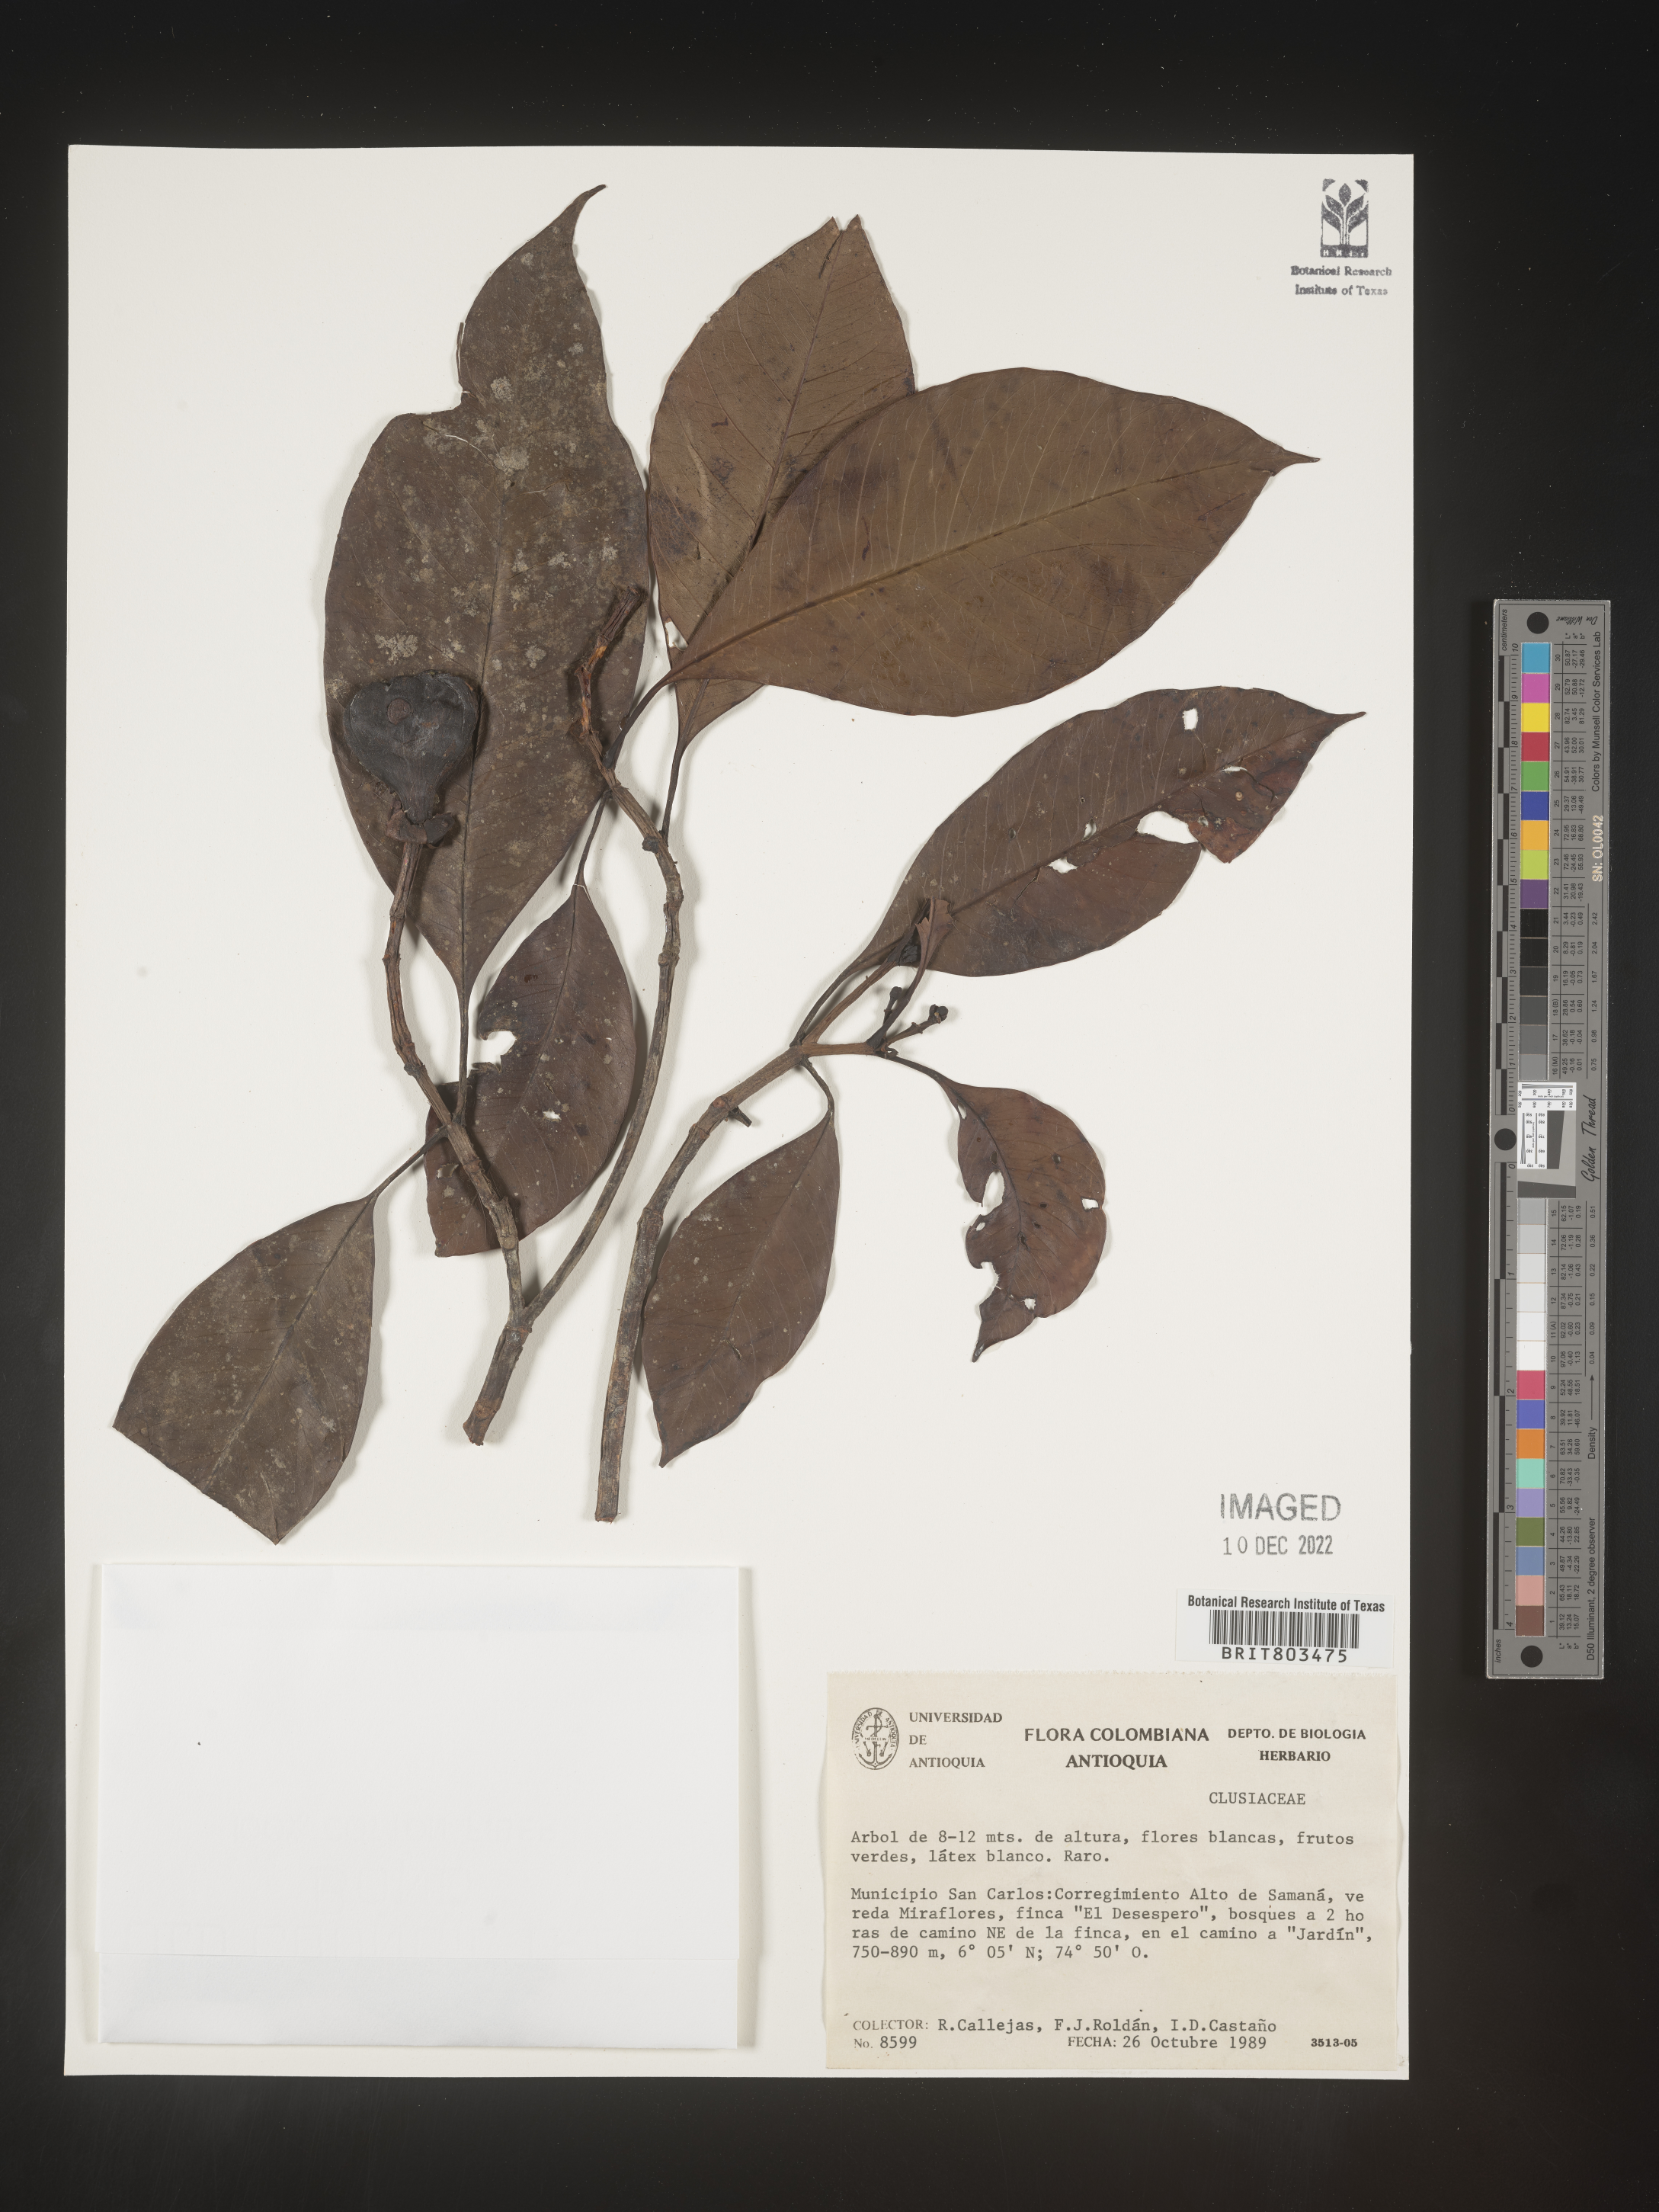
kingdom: Plantae
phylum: Tracheophyta
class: Magnoliopsida
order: Malpighiales
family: Clusiaceae
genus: Tovomita
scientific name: Tovomita
